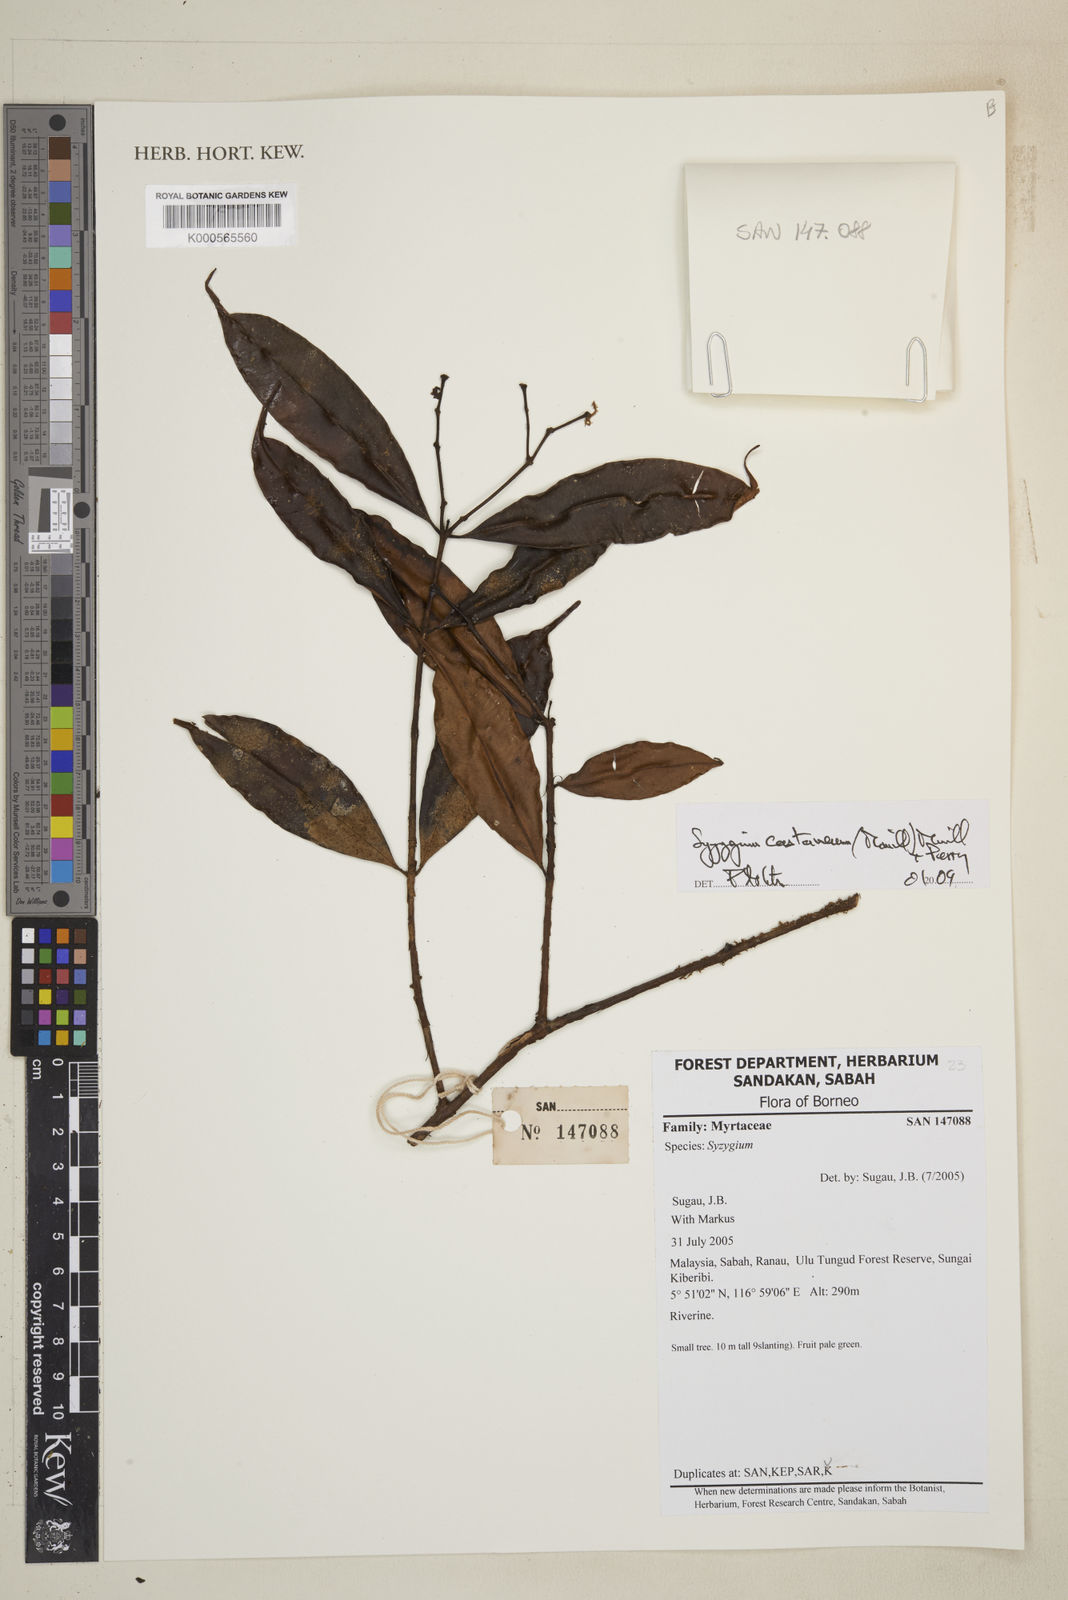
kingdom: Plantae
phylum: Tracheophyta
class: Magnoliopsida
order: Myrtales
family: Myrtaceae
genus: Syzygium
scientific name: Syzygium castaneum
